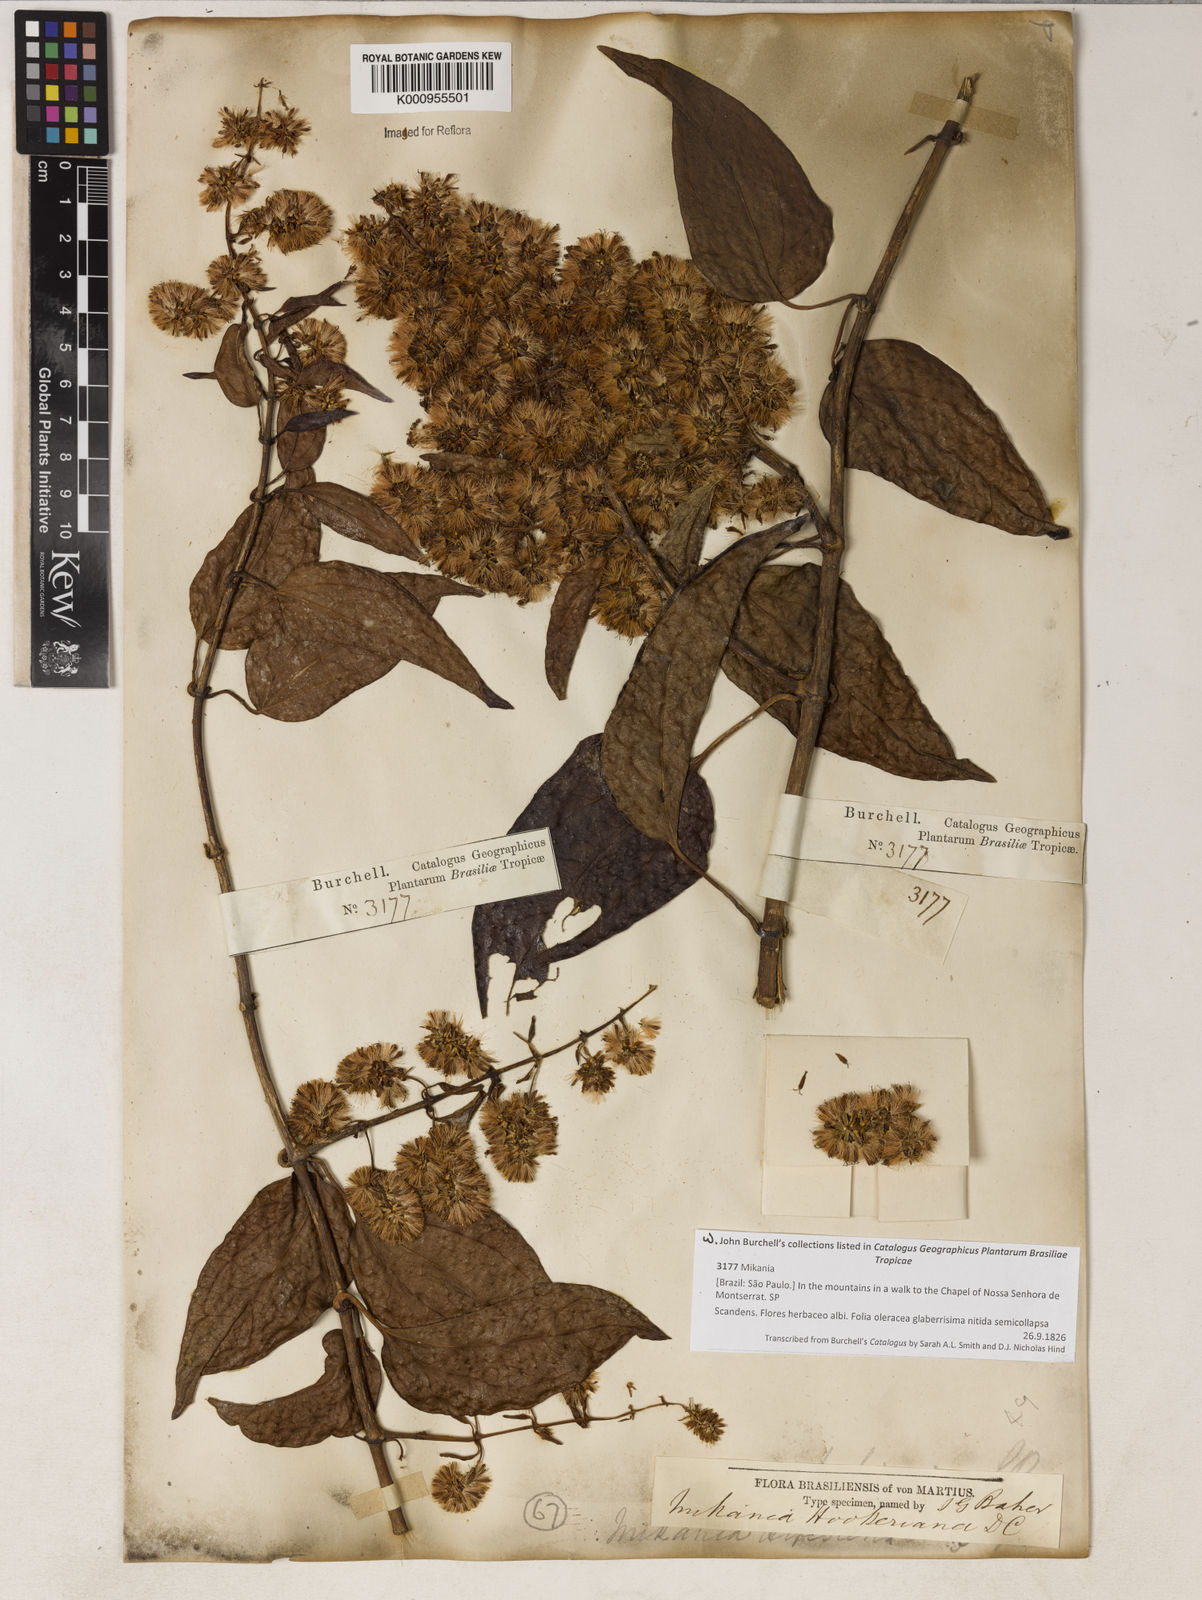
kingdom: Plantae
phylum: Tracheophyta
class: Magnoliopsida
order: Asterales
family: Asteraceae
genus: Mikania
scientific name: Mikania
